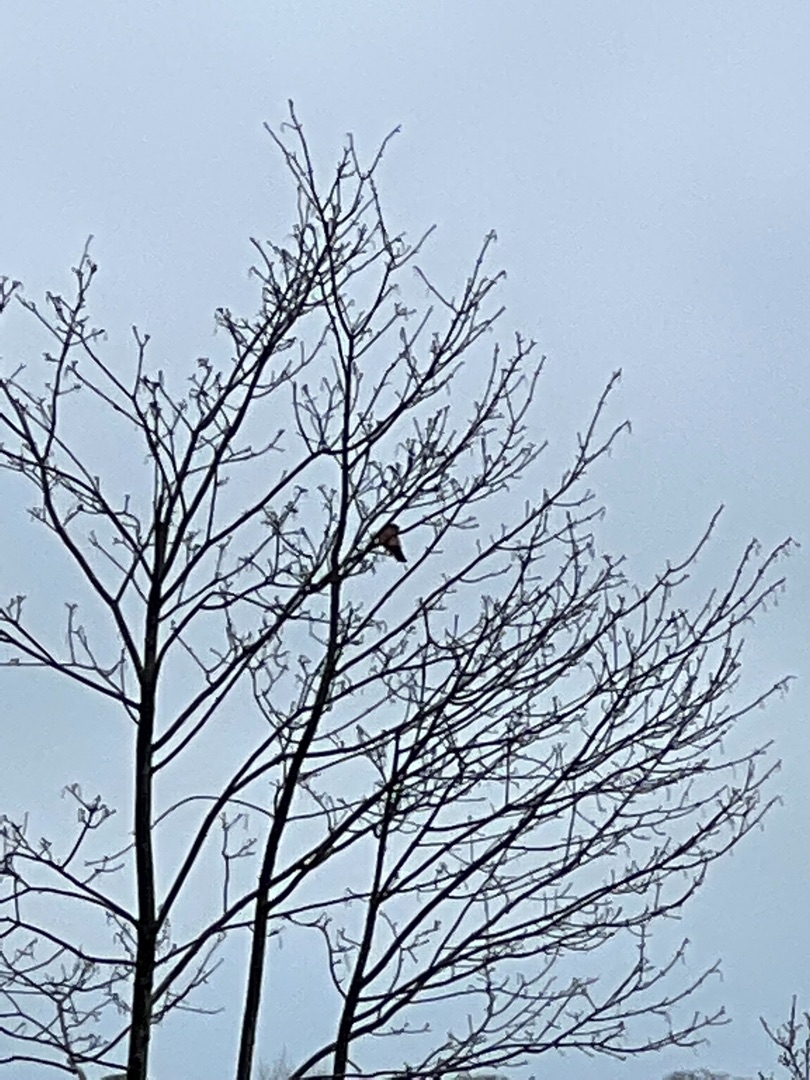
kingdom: Animalia
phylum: Chordata
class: Aves
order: Falconiformes
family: Falconidae
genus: Falco
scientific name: Falco tinnunculus
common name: Tårnfalk
